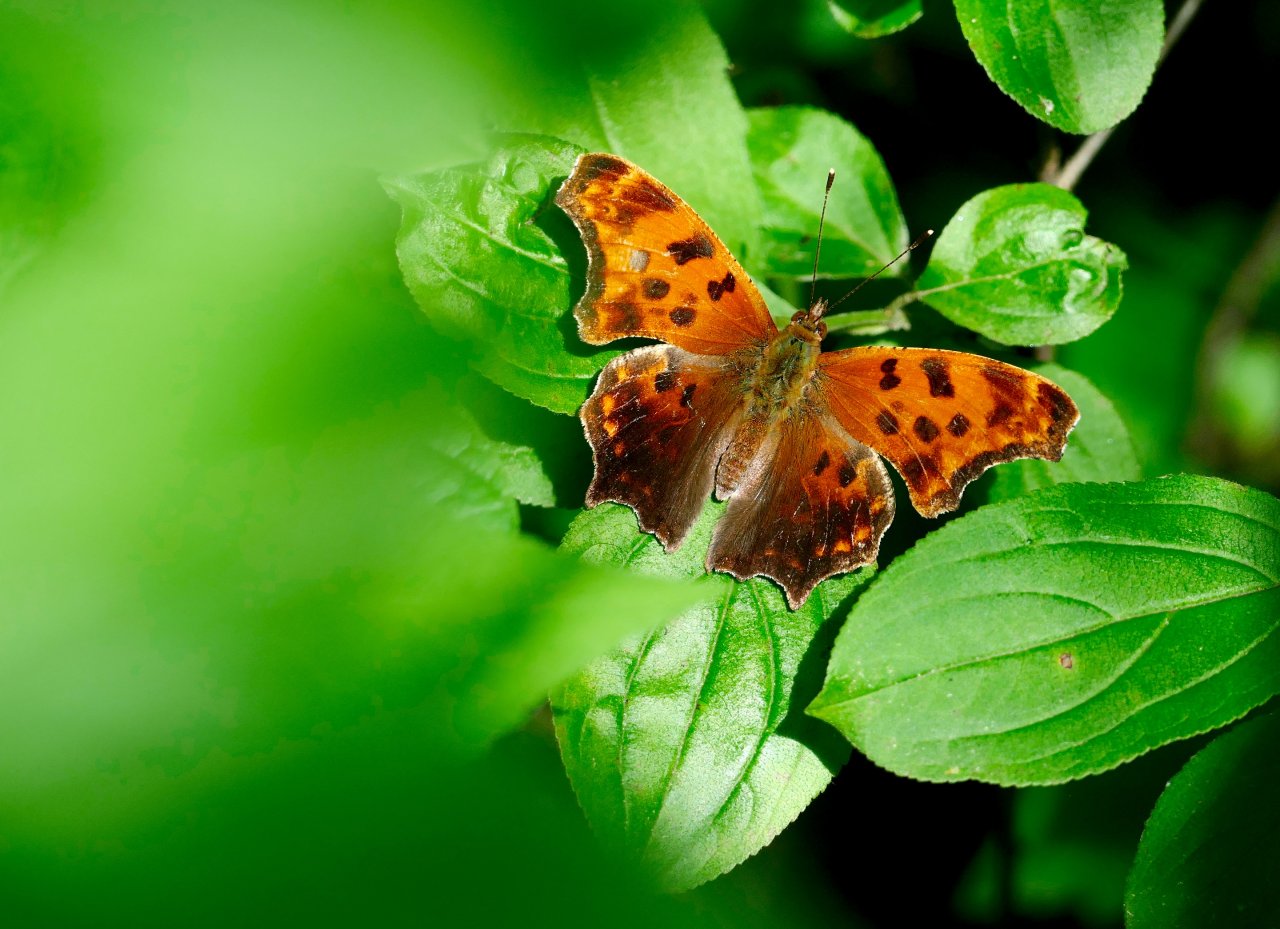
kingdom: Animalia
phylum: Arthropoda
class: Insecta
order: Lepidoptera
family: Nymphalidae
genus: Polygonia
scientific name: Polygonia comma
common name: Eastern Comma
